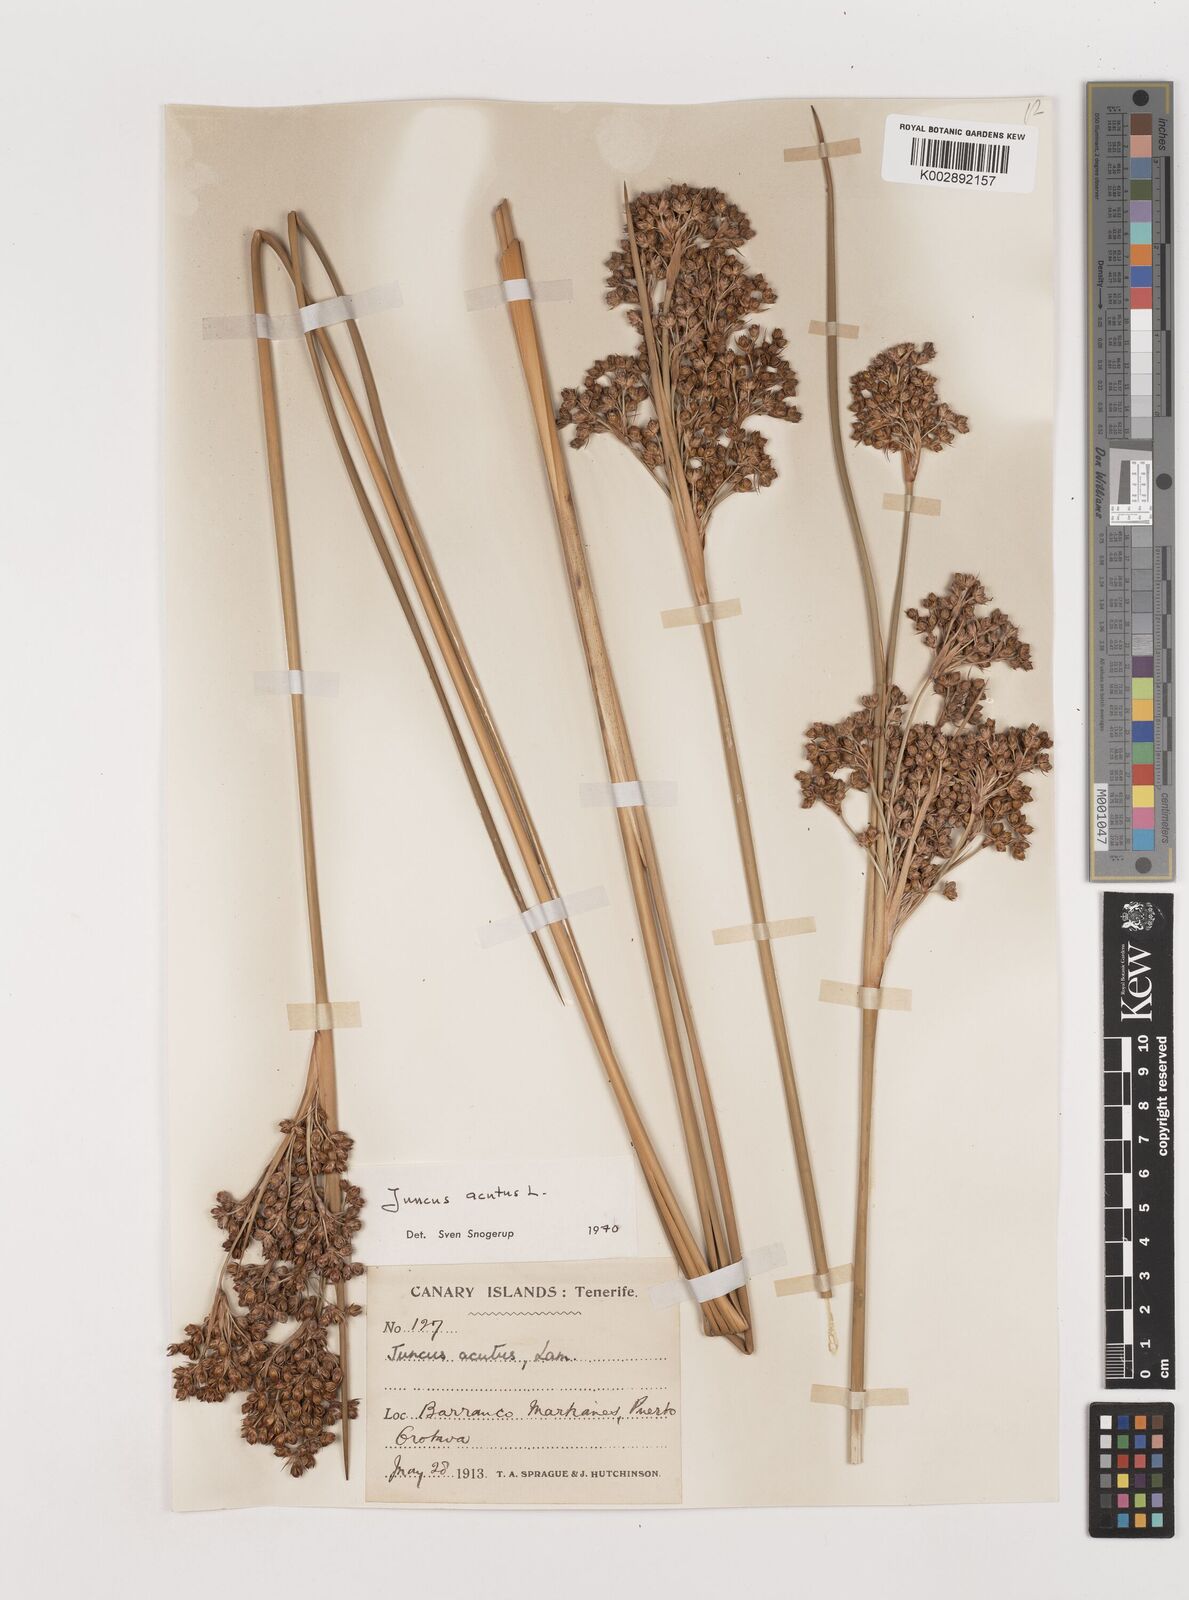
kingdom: Plantae
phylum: Tracheophyta
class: Liliopsida
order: Poales
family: Juncaceae
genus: Juncus
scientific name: Juncus acutus
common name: Sharp rush
